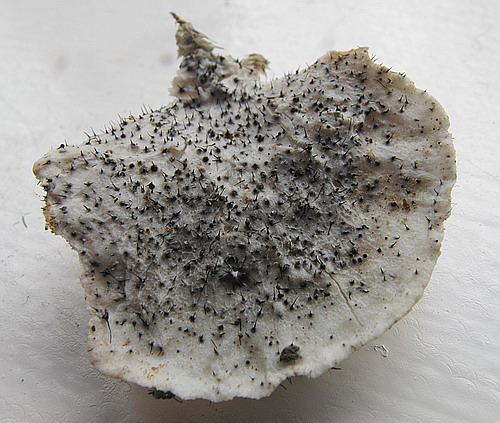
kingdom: Fungi
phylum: Ascomycota
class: Sordariomycetes
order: Ophiostomatales
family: Ophiostomataceae
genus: Sporothrix
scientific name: Sporothrix polyporicola
